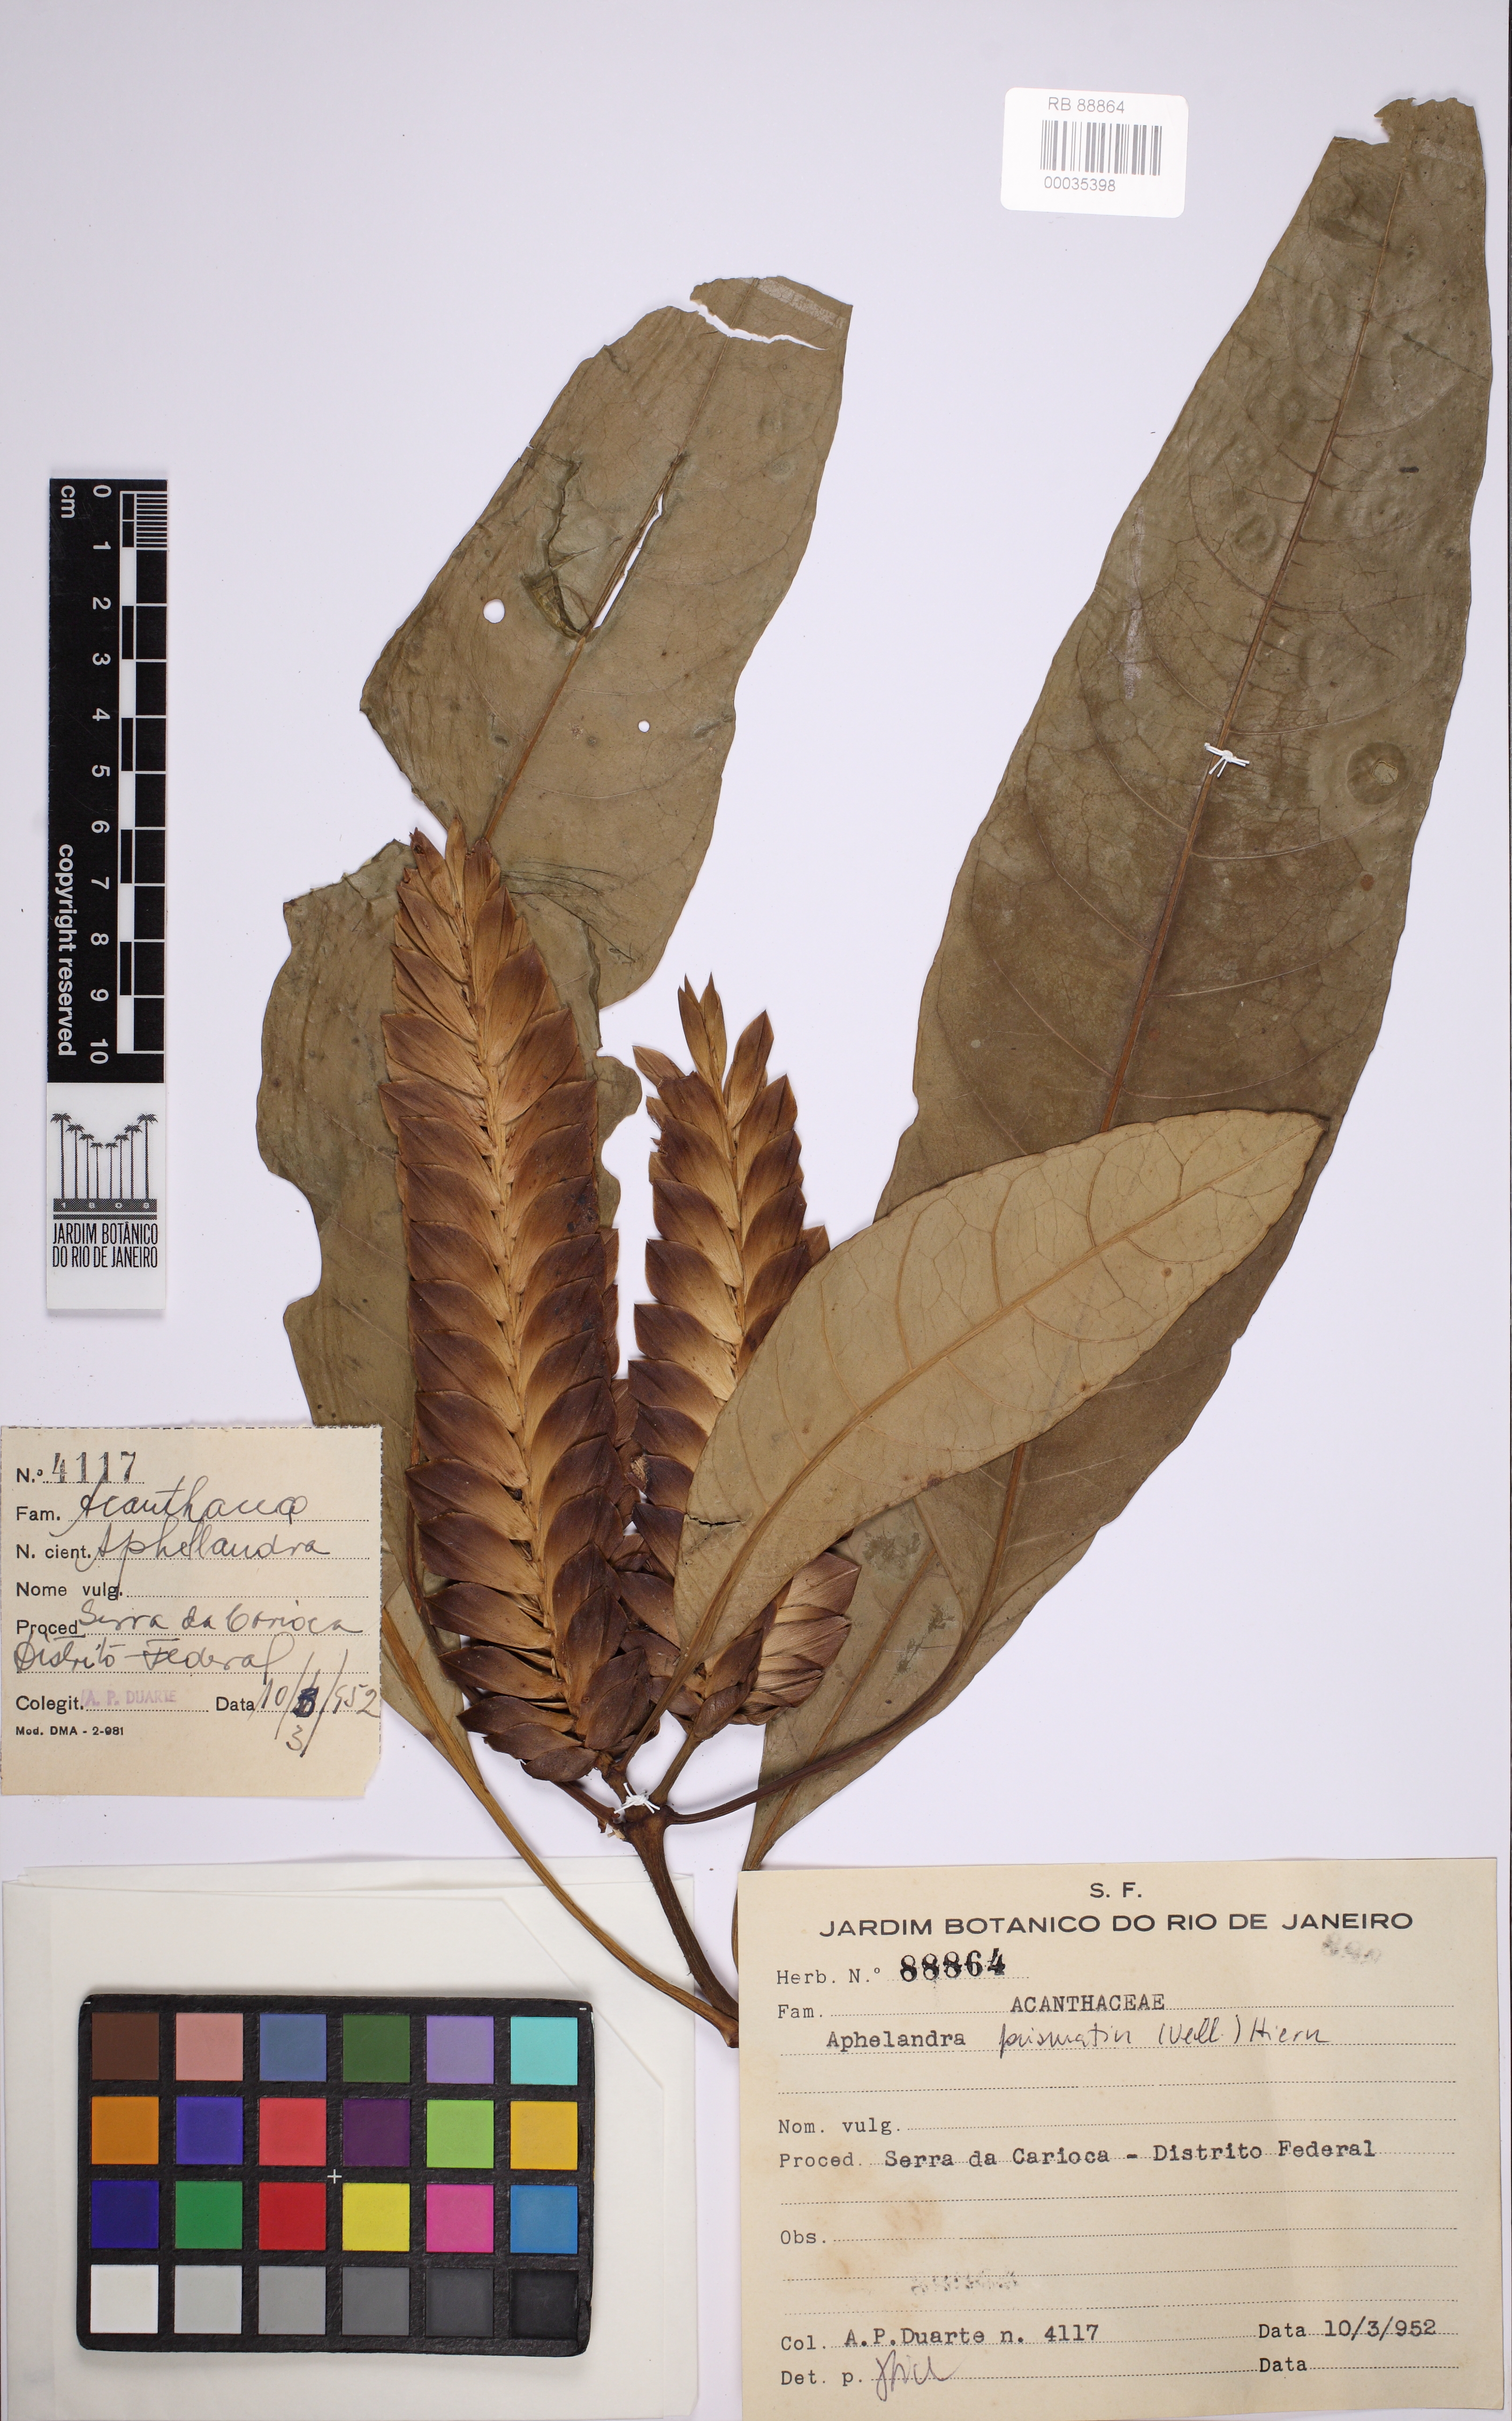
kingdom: Plantae
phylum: Tracheophyta
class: Magnoliopsida
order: Lamiales
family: Acanthaceae
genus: Aphelandra
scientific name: Aphelandra
